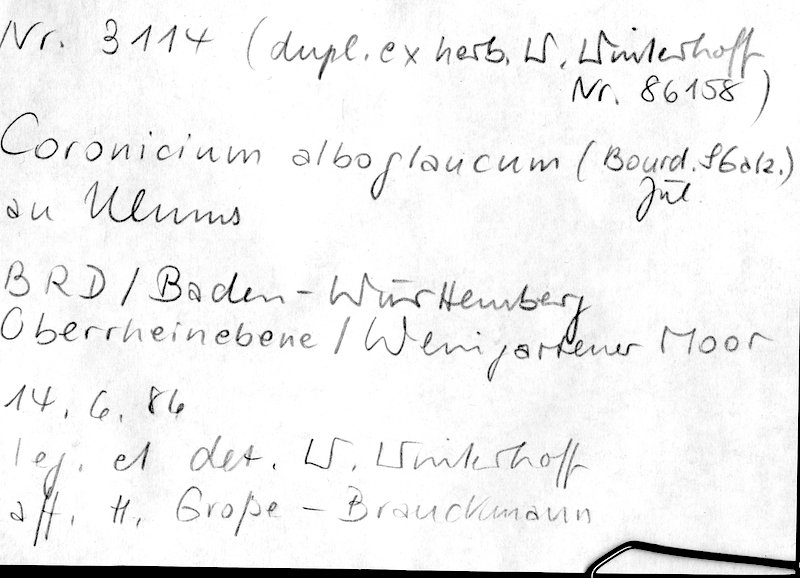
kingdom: Plantae
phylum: Tracheophyta
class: Magnoliopsida
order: Rosales
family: Ulmaceae
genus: Ulmus
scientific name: Ulmus
